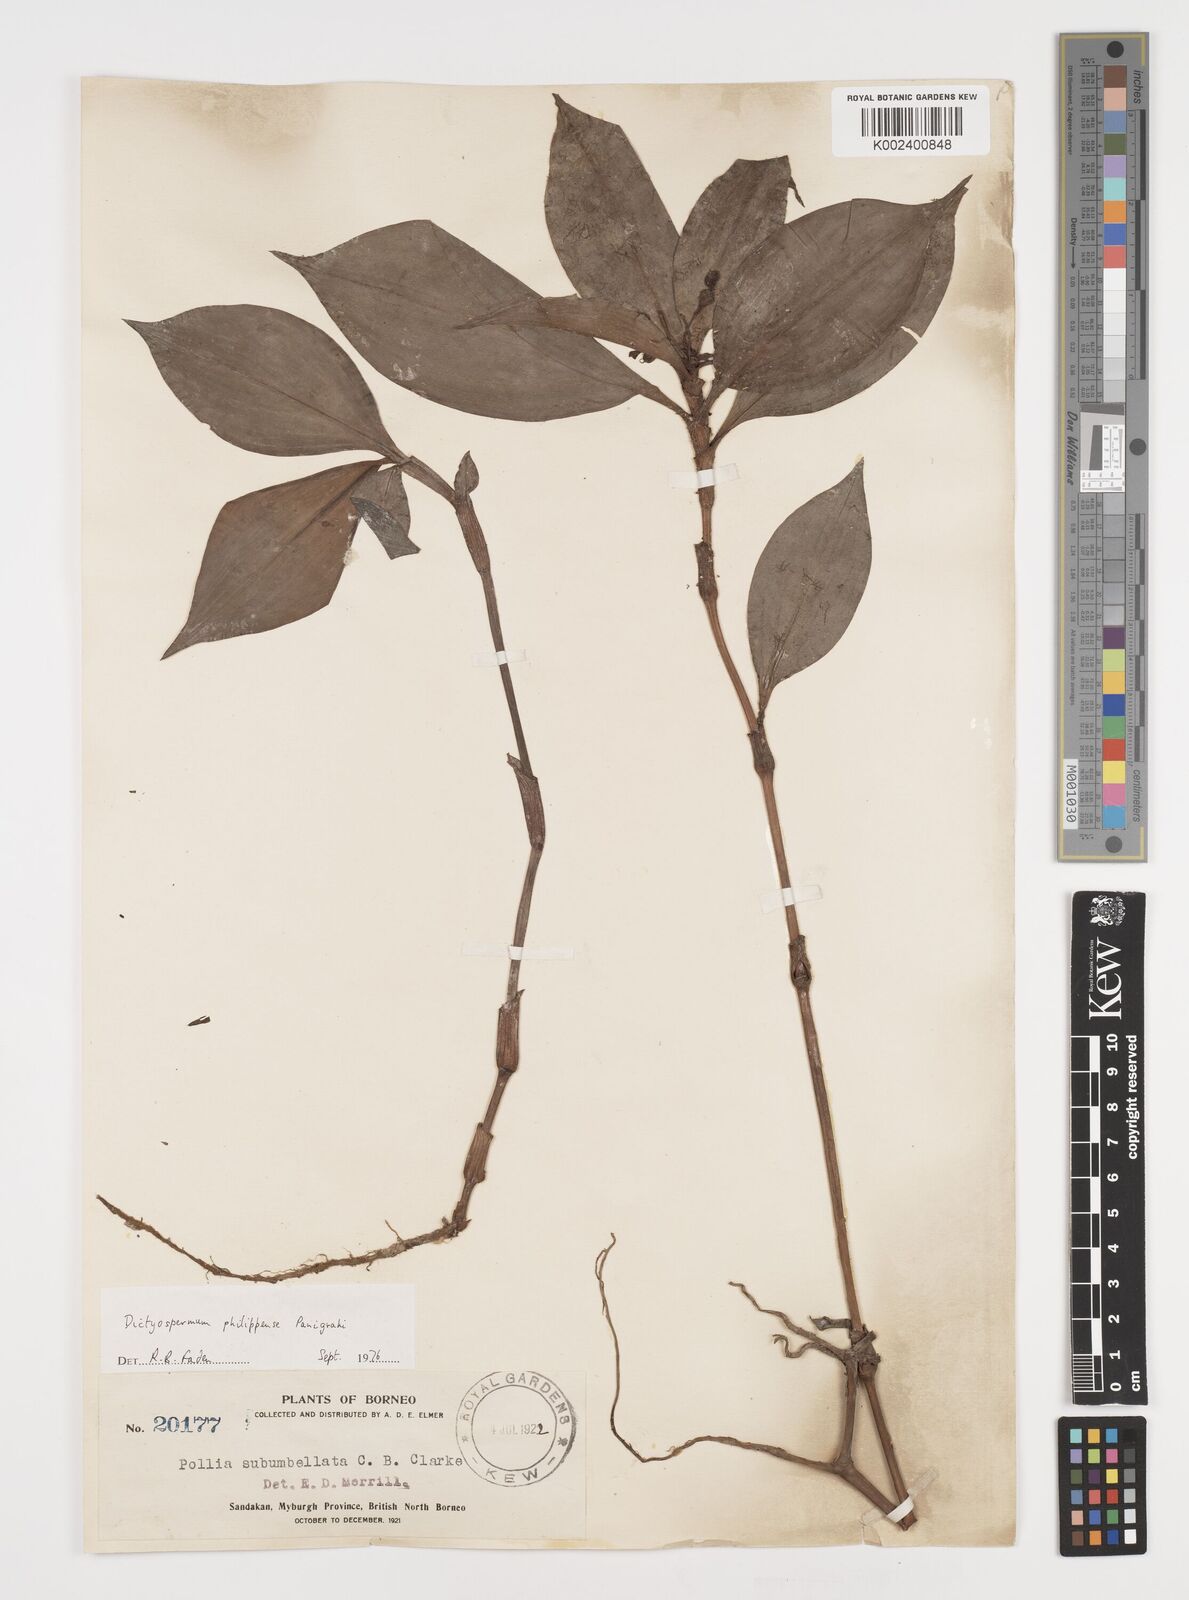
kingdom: Plantae
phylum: Tracheophyta
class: Liliopsida
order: Commelinales
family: Commelinaceae
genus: Tricarpelema
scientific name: Tricarpelema philippense
